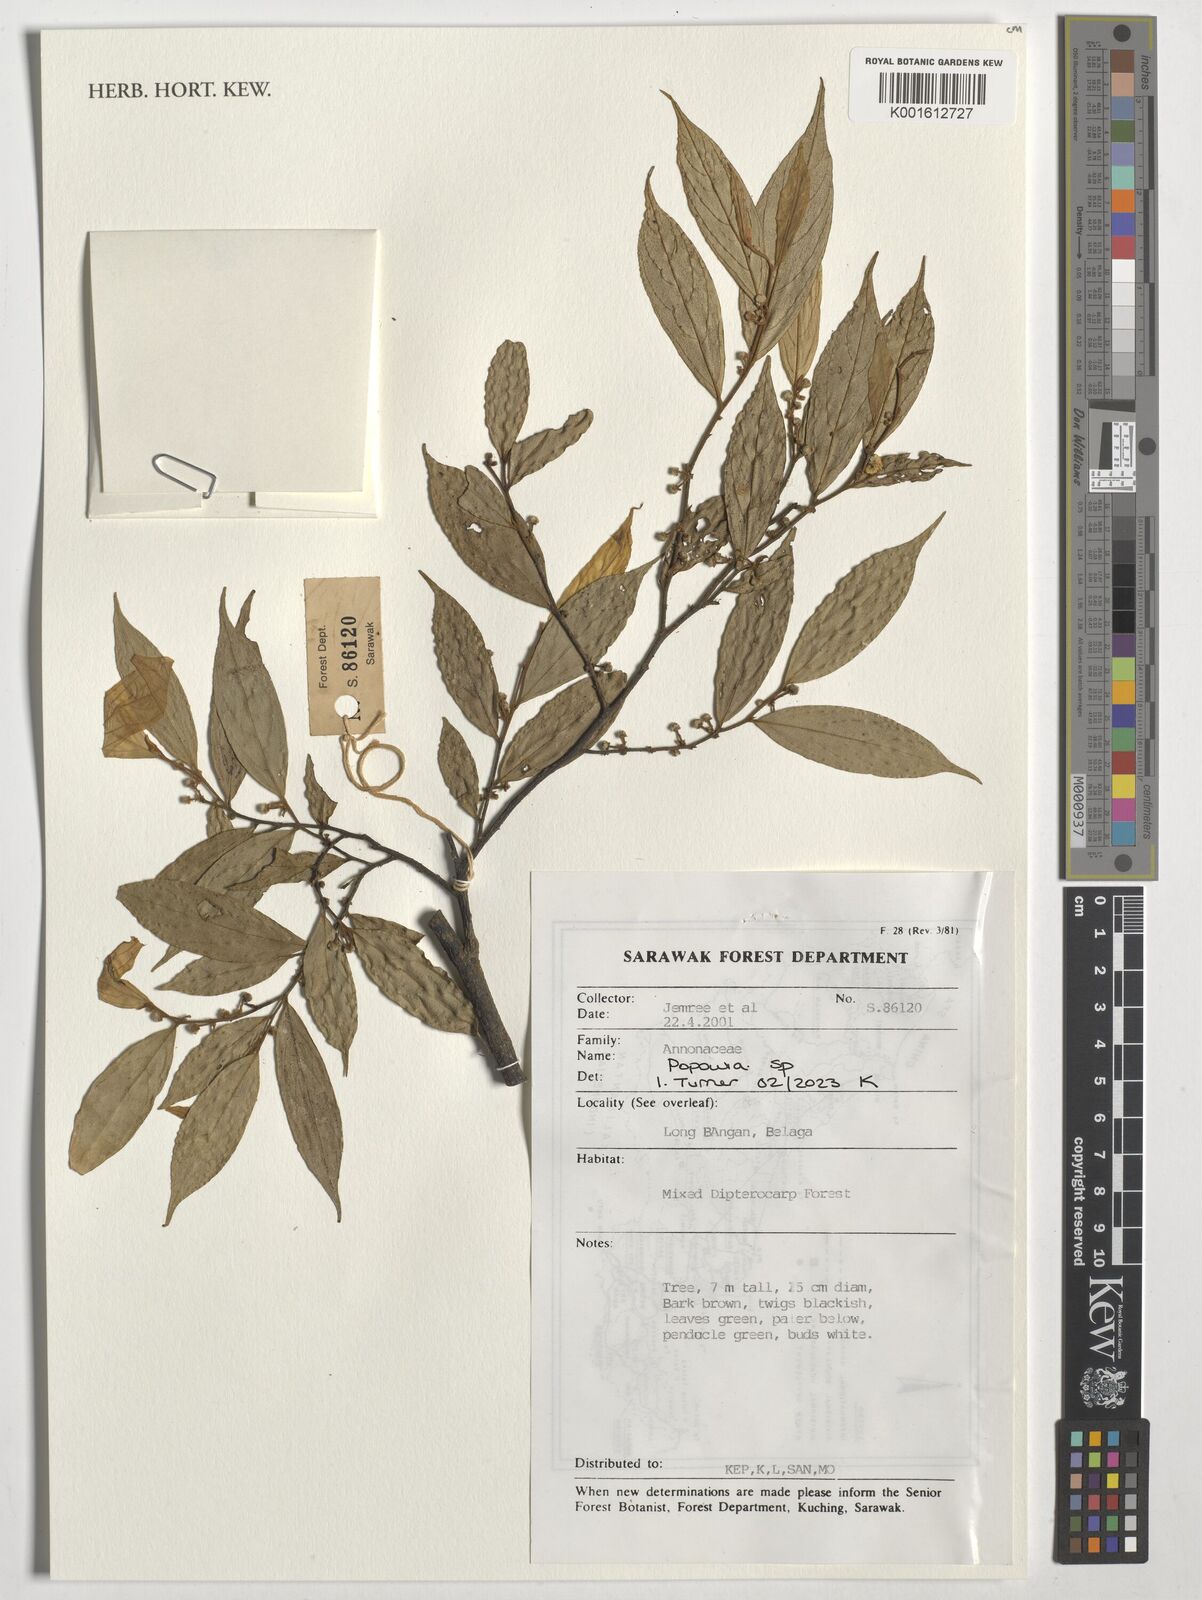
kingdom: Plantae
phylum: Tracheophyta
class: Magnoliopsida
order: Magnoliales
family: Annonaceae
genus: Popowia
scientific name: Popowia
